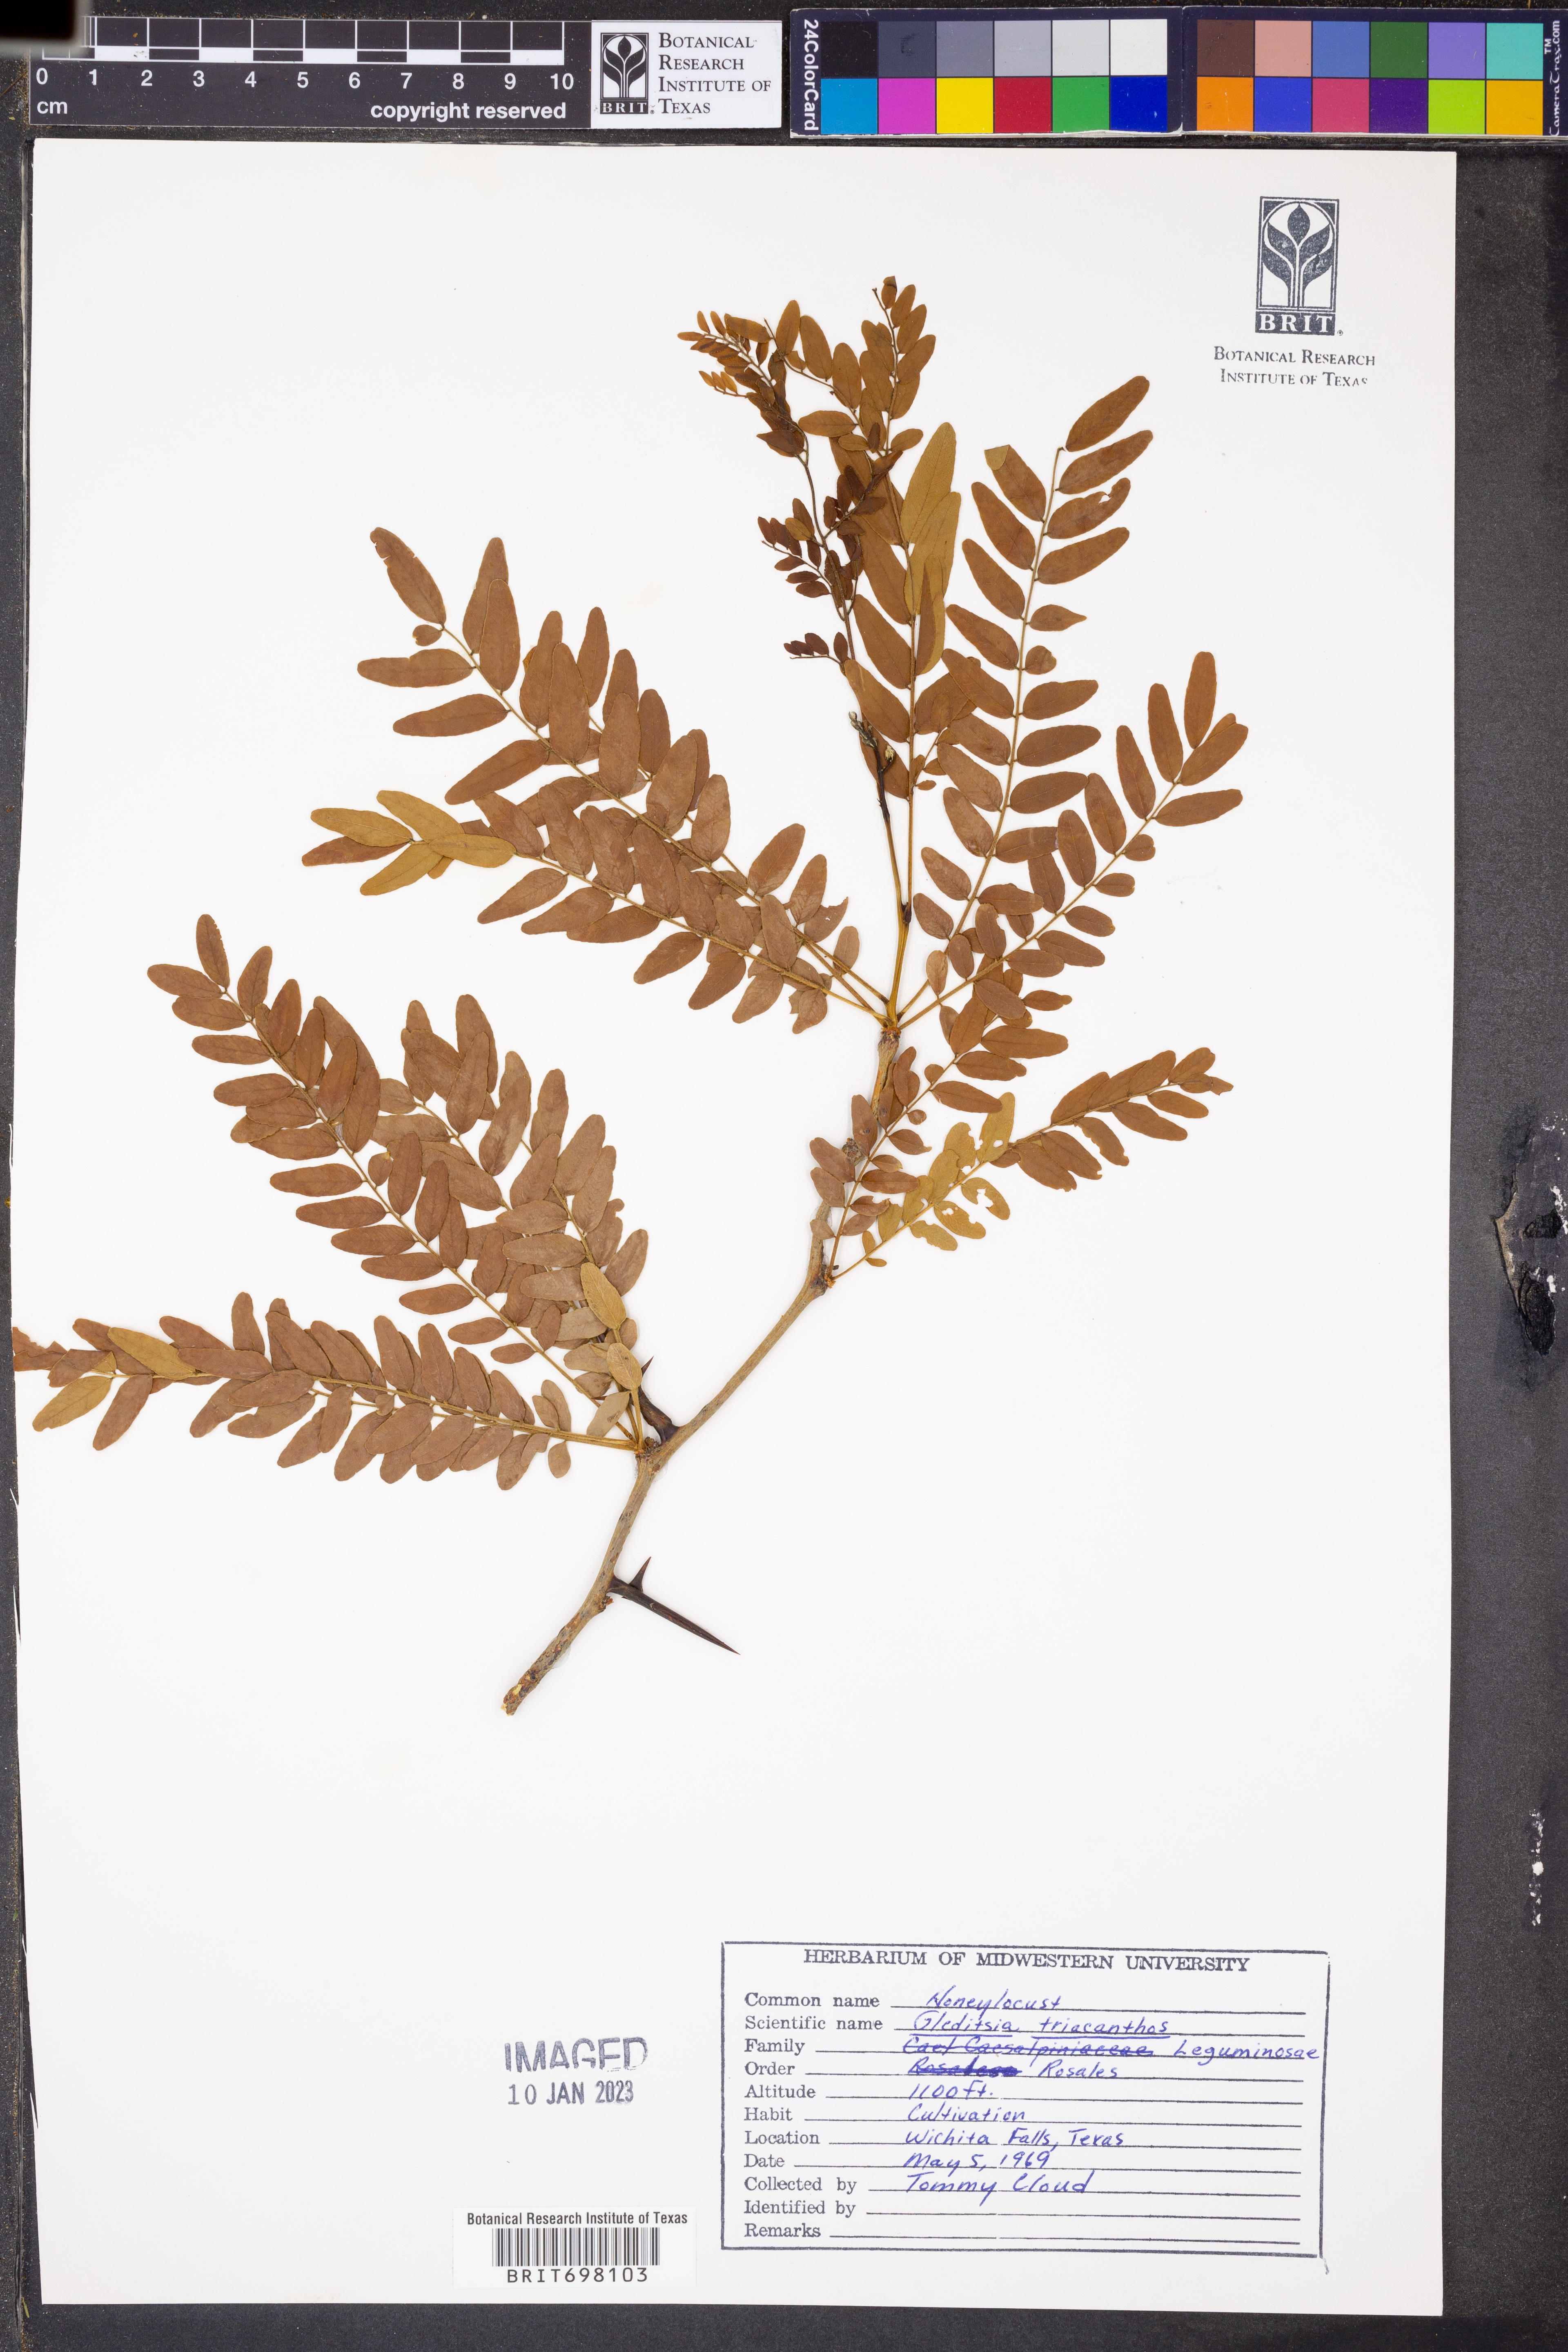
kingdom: Plantae
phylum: Tracheophyta
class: Magnoliopsida
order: Fabales
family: Fabaceae
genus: Gleditsia
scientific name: Gleditsia triacanthos
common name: Common honeylocust
